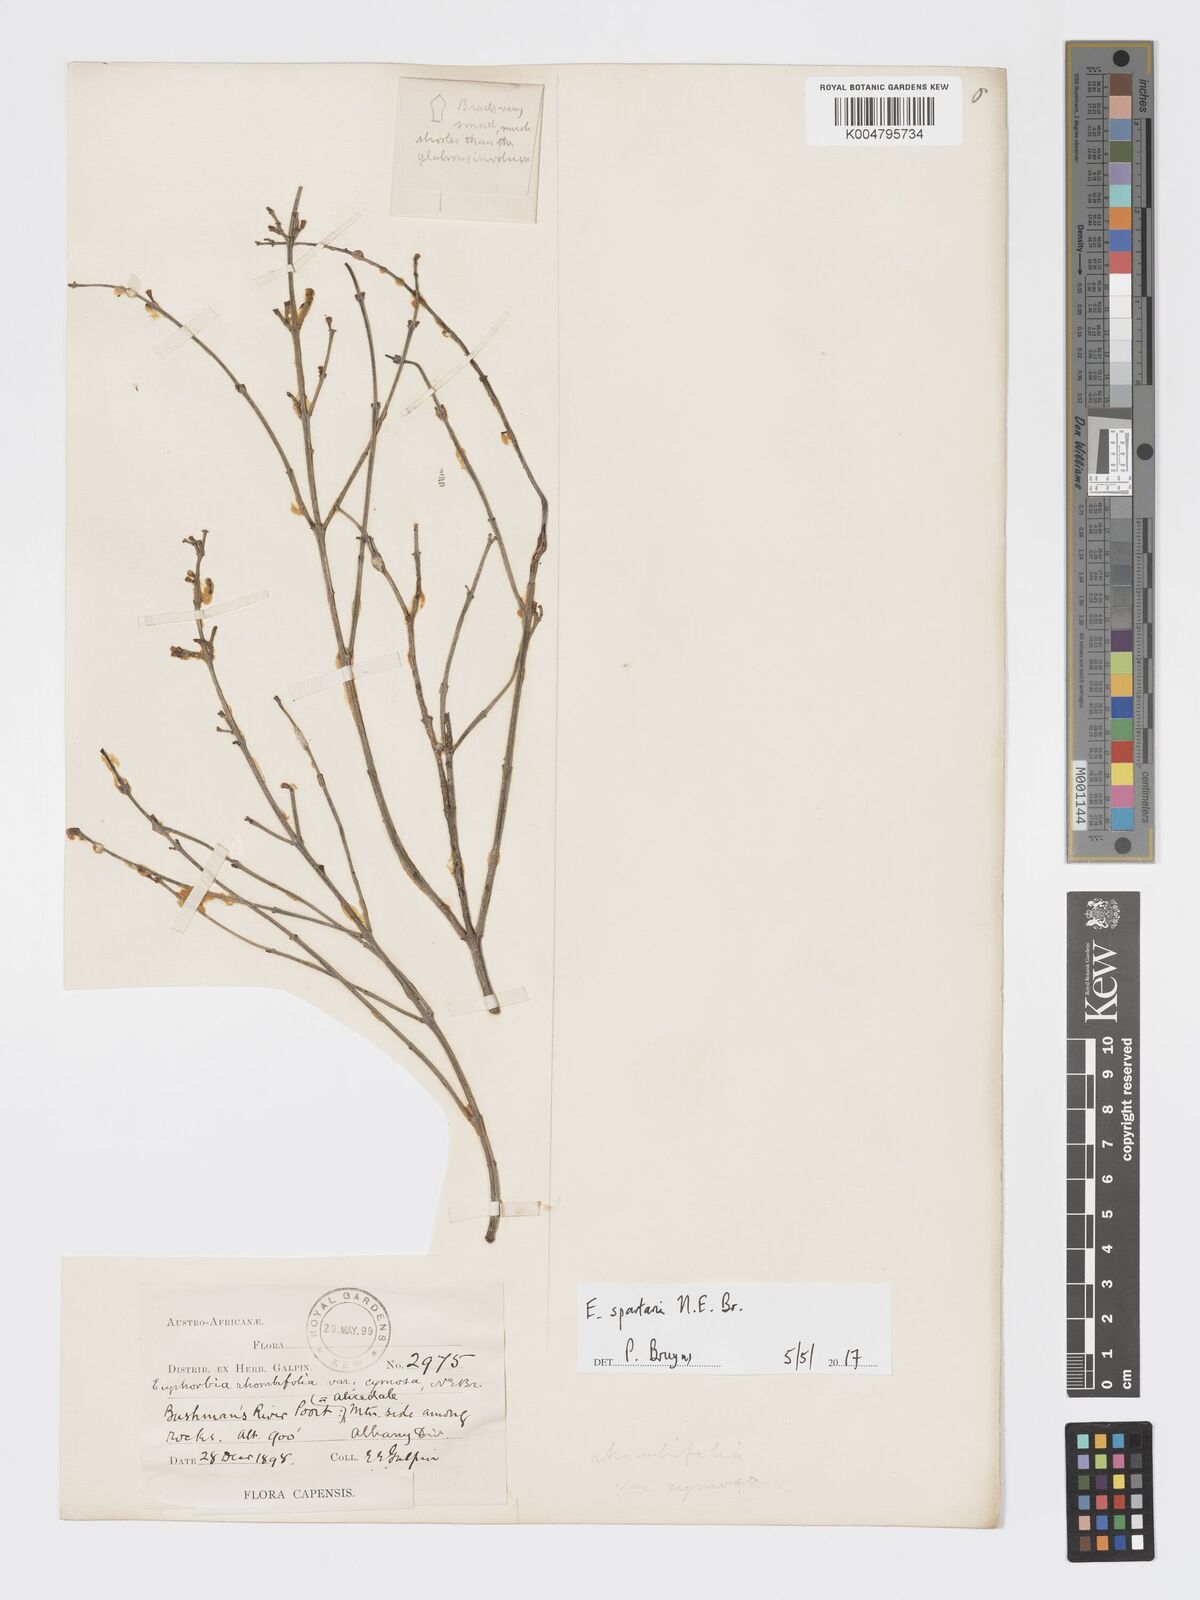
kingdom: Plantae
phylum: Tracheophyta
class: Magnoliopsida
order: Malpighiales
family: Euphorbiaceae
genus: Euphorbia
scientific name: Euphorbia spartaria
